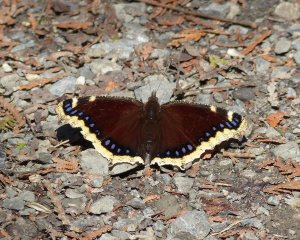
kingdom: Animalia
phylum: Arthropoda
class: Insecta
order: Lepidoptera
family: Nymphalidae
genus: Nymphalis
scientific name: Nymphalis antiopa
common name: Mourning Cloak
